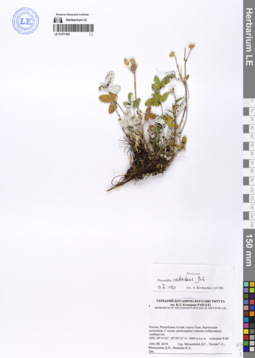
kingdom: Plantae
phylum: Tracheophyta
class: Magnoliopsida
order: Rosales
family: Rosaceae
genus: Potentilla
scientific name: Potentilla crebridens
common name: Congested cinquefoil
